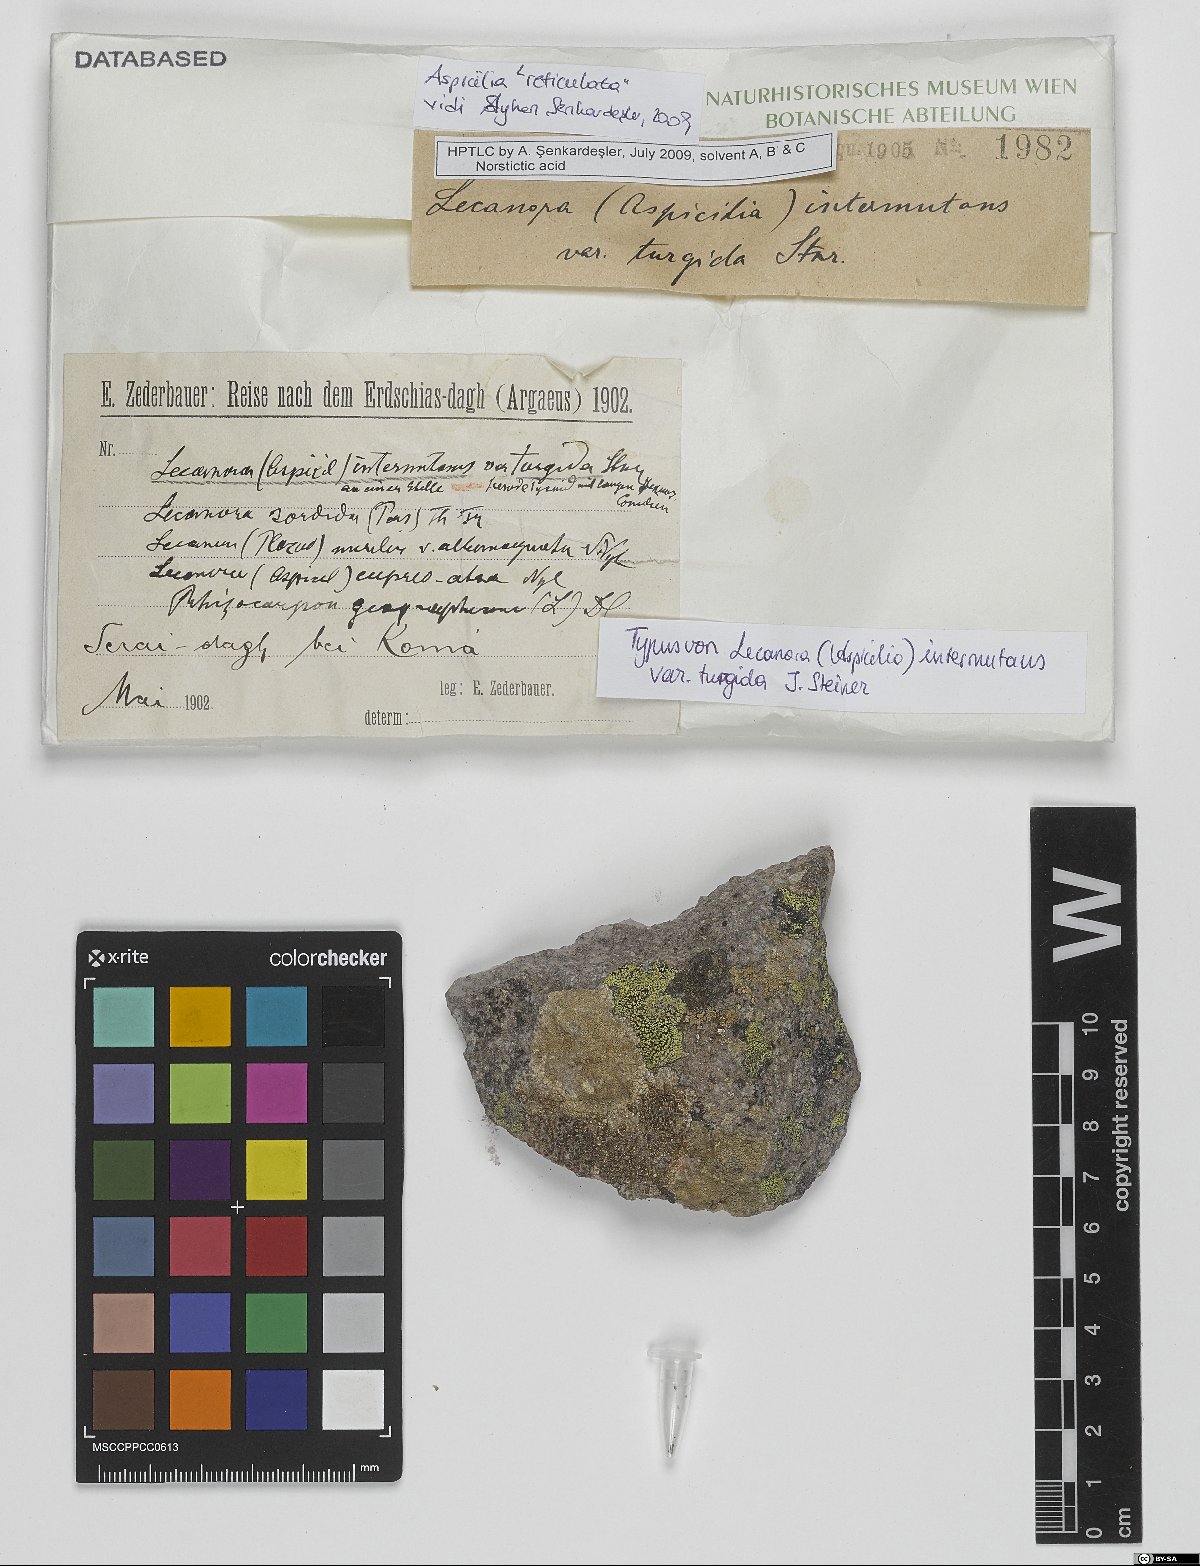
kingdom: Fungi
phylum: Ascomycota
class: Lecanoromycetes
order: Pertusariales
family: Megasporaceae
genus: Aspiciliella
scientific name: Aspiciliella intermutans
